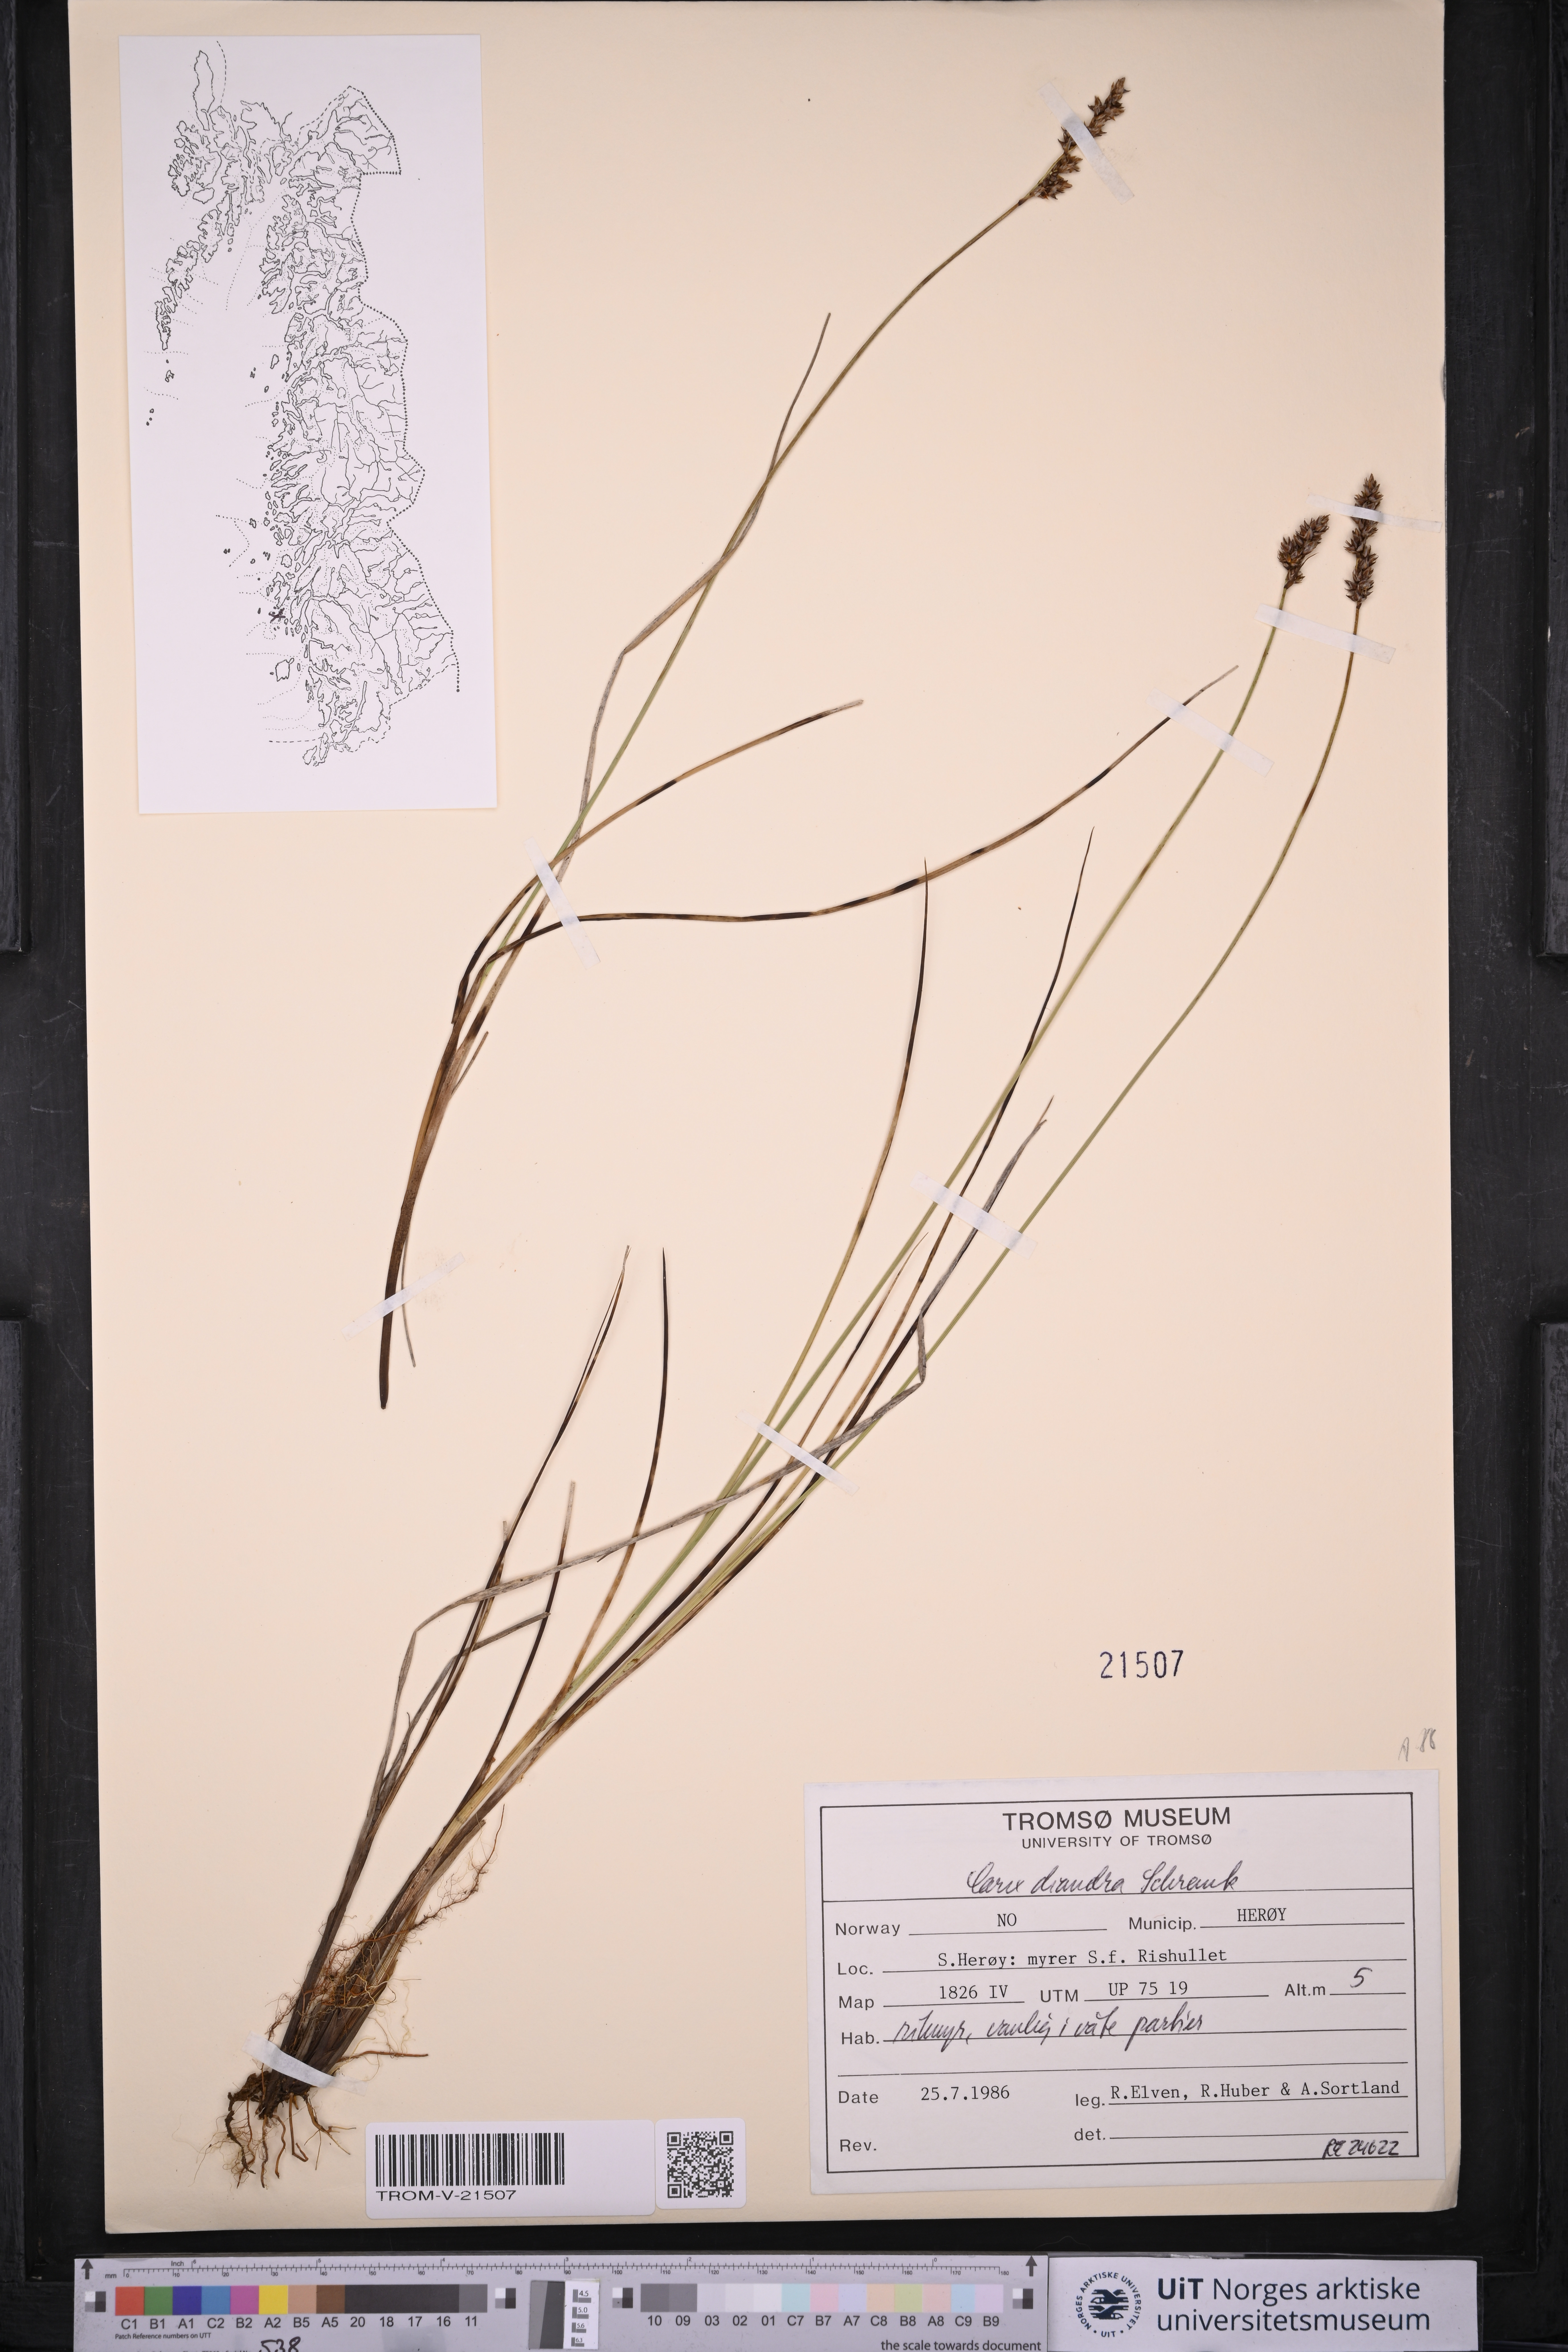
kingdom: Plantae
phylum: Tracheophyta
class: Liliopsida
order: Poales
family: Cyperaceae
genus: Carex
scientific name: Carex diandra
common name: Lesser tussock-sedge
